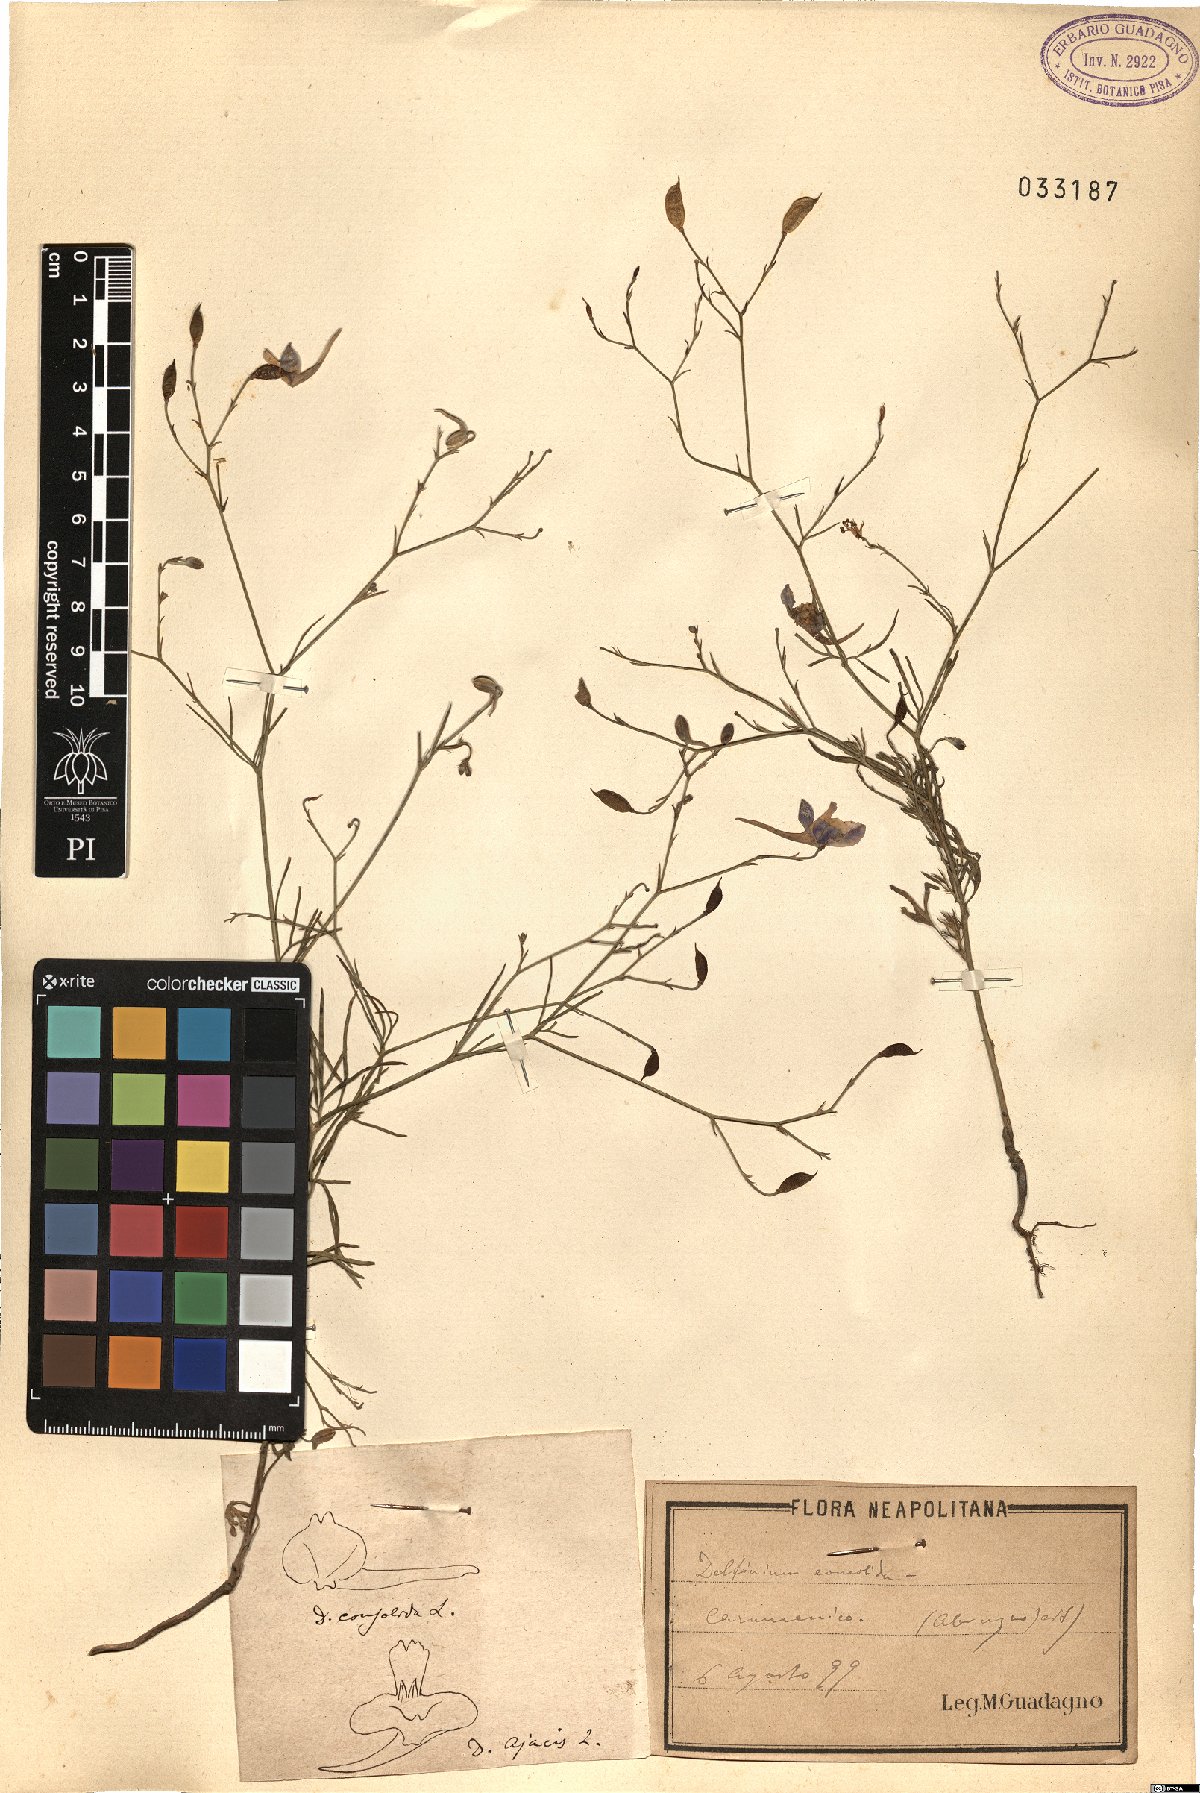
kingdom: Plantae
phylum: Tracheophyta
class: Magnoliopsida
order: Ranunculales
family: Ranunculaceae
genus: Delphinium
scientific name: Delphinium consolida
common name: Branching larkspur
